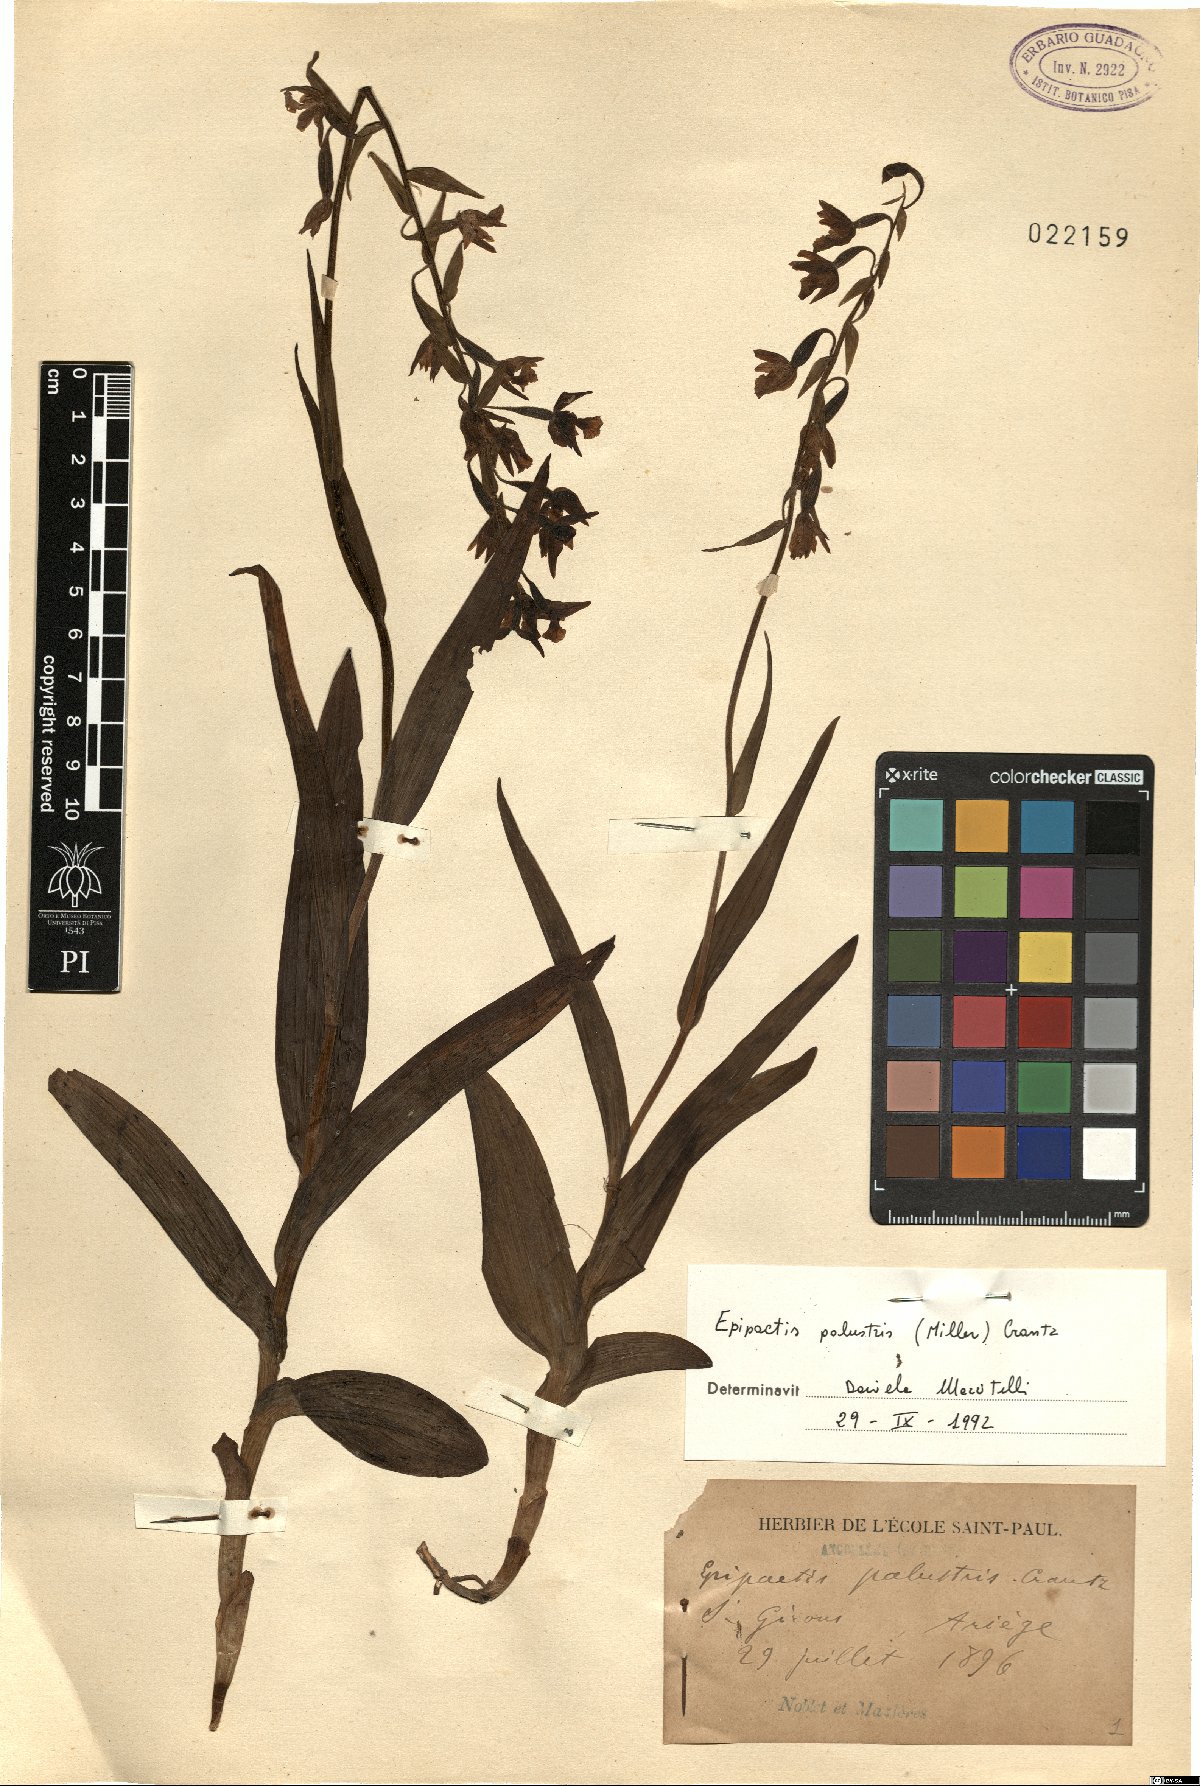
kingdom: Plantae
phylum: Tracheophyta
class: Liliopsida
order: Asparagales
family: Orchidaceae
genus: Epipactis
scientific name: Epipactis palustris
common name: Marsh helleborine
